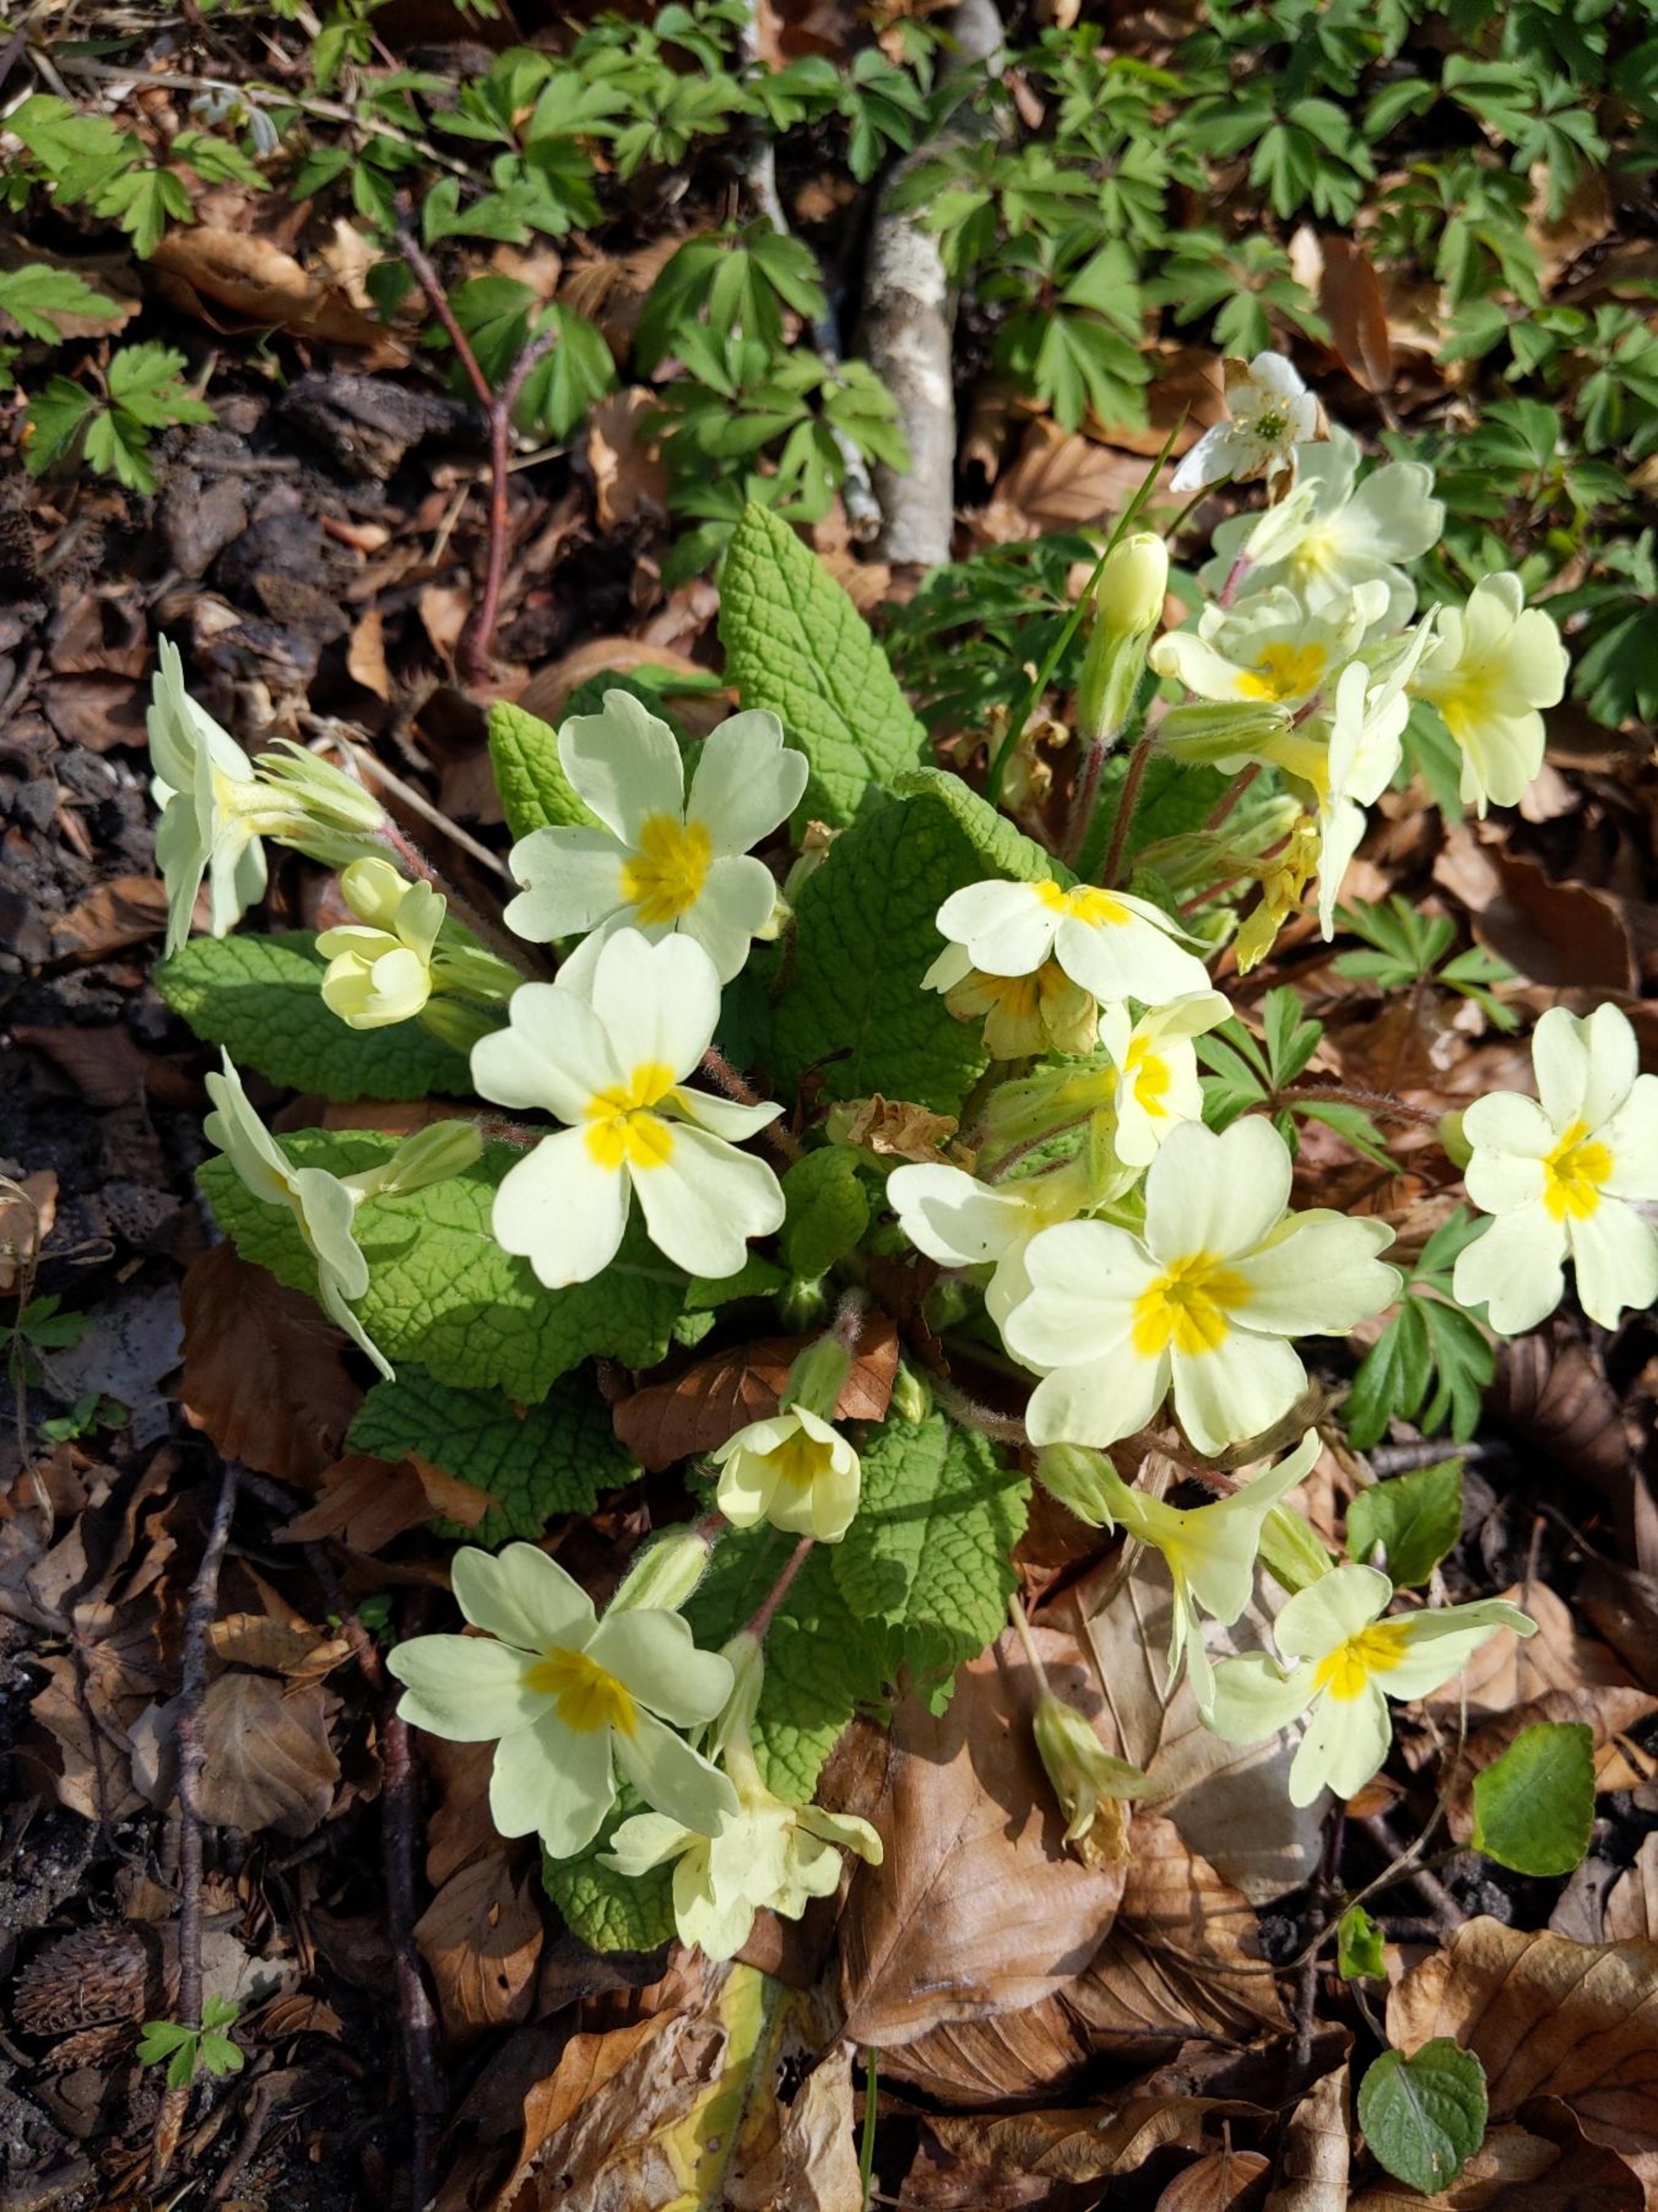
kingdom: Plantae
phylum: Tracheophyta
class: Magnoliopsida
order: Ericales
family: Primulaceae
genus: Primula
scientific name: Primula vulgaris
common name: Storblomstret kodriver
